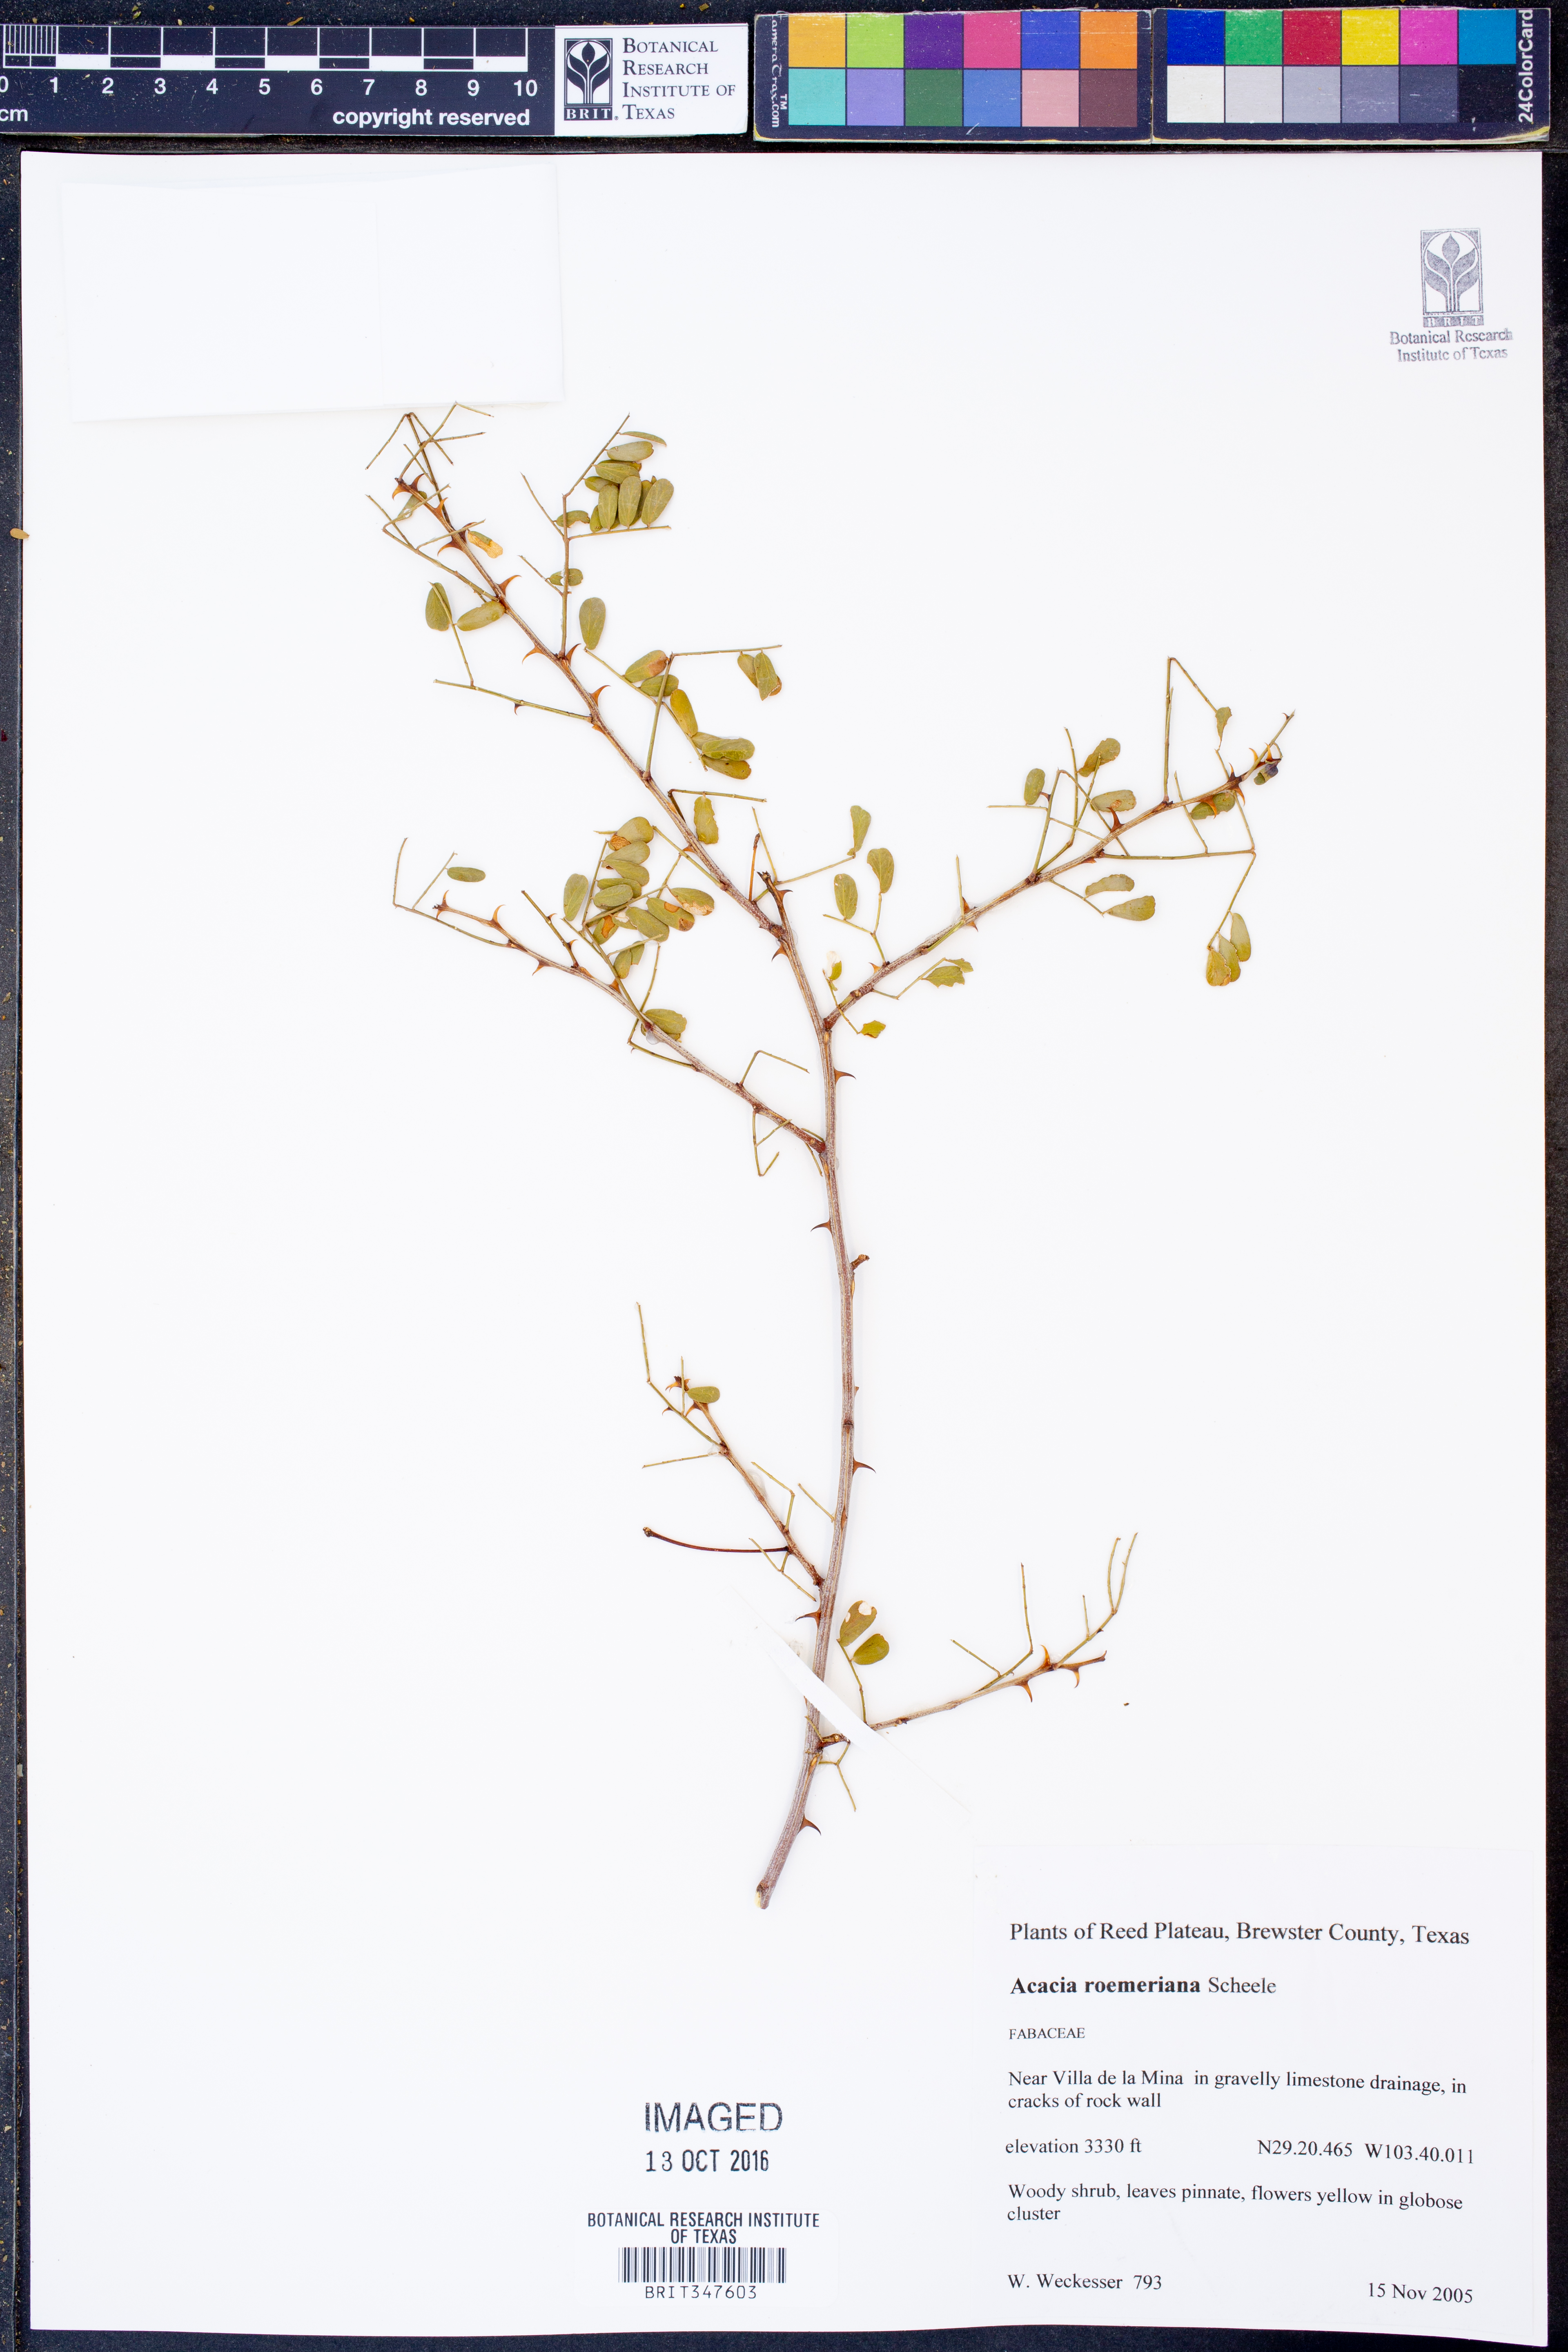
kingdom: Plantae
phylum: Tracheophyta
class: Magnoliopsida
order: Fabales
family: Fabaceae
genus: Senegalia
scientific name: Senegalia roemeriana
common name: Roemer's acacia
